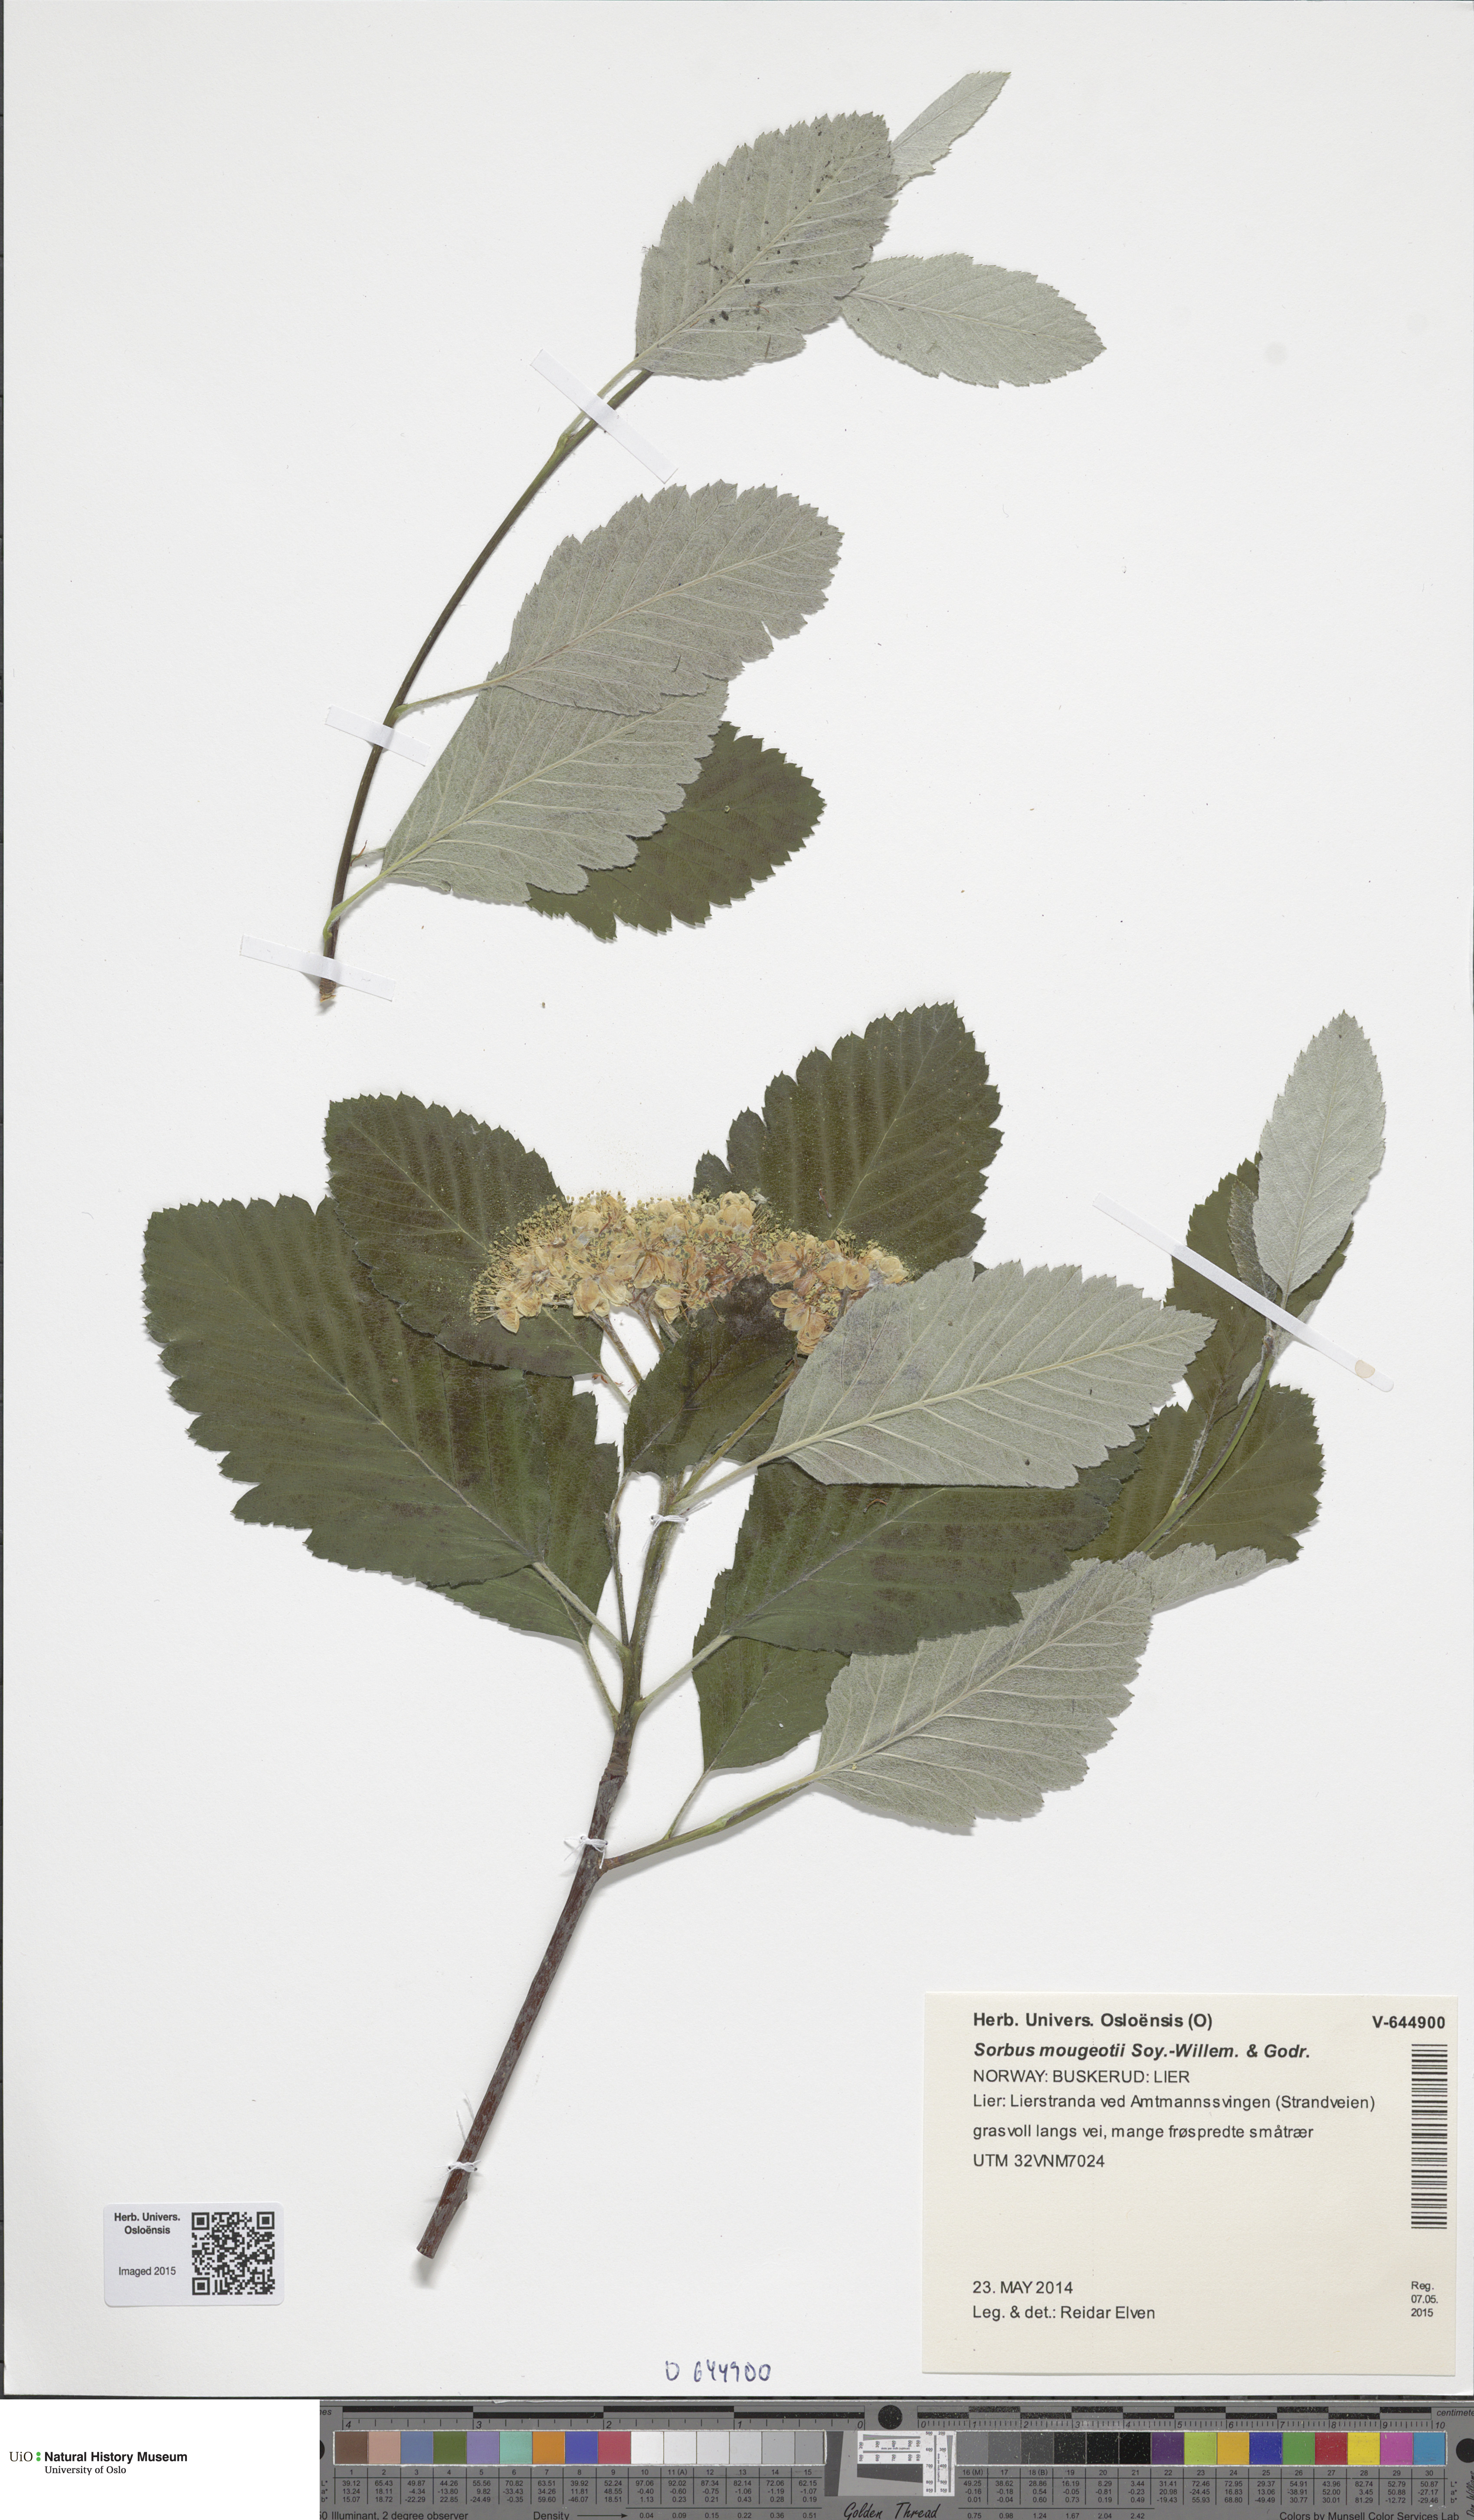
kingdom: Plantae
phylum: Tracheophyta
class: Magnoliopsida
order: Rosales
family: Rosaceae
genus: Hedlundia
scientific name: Hedlundia mougeotii
